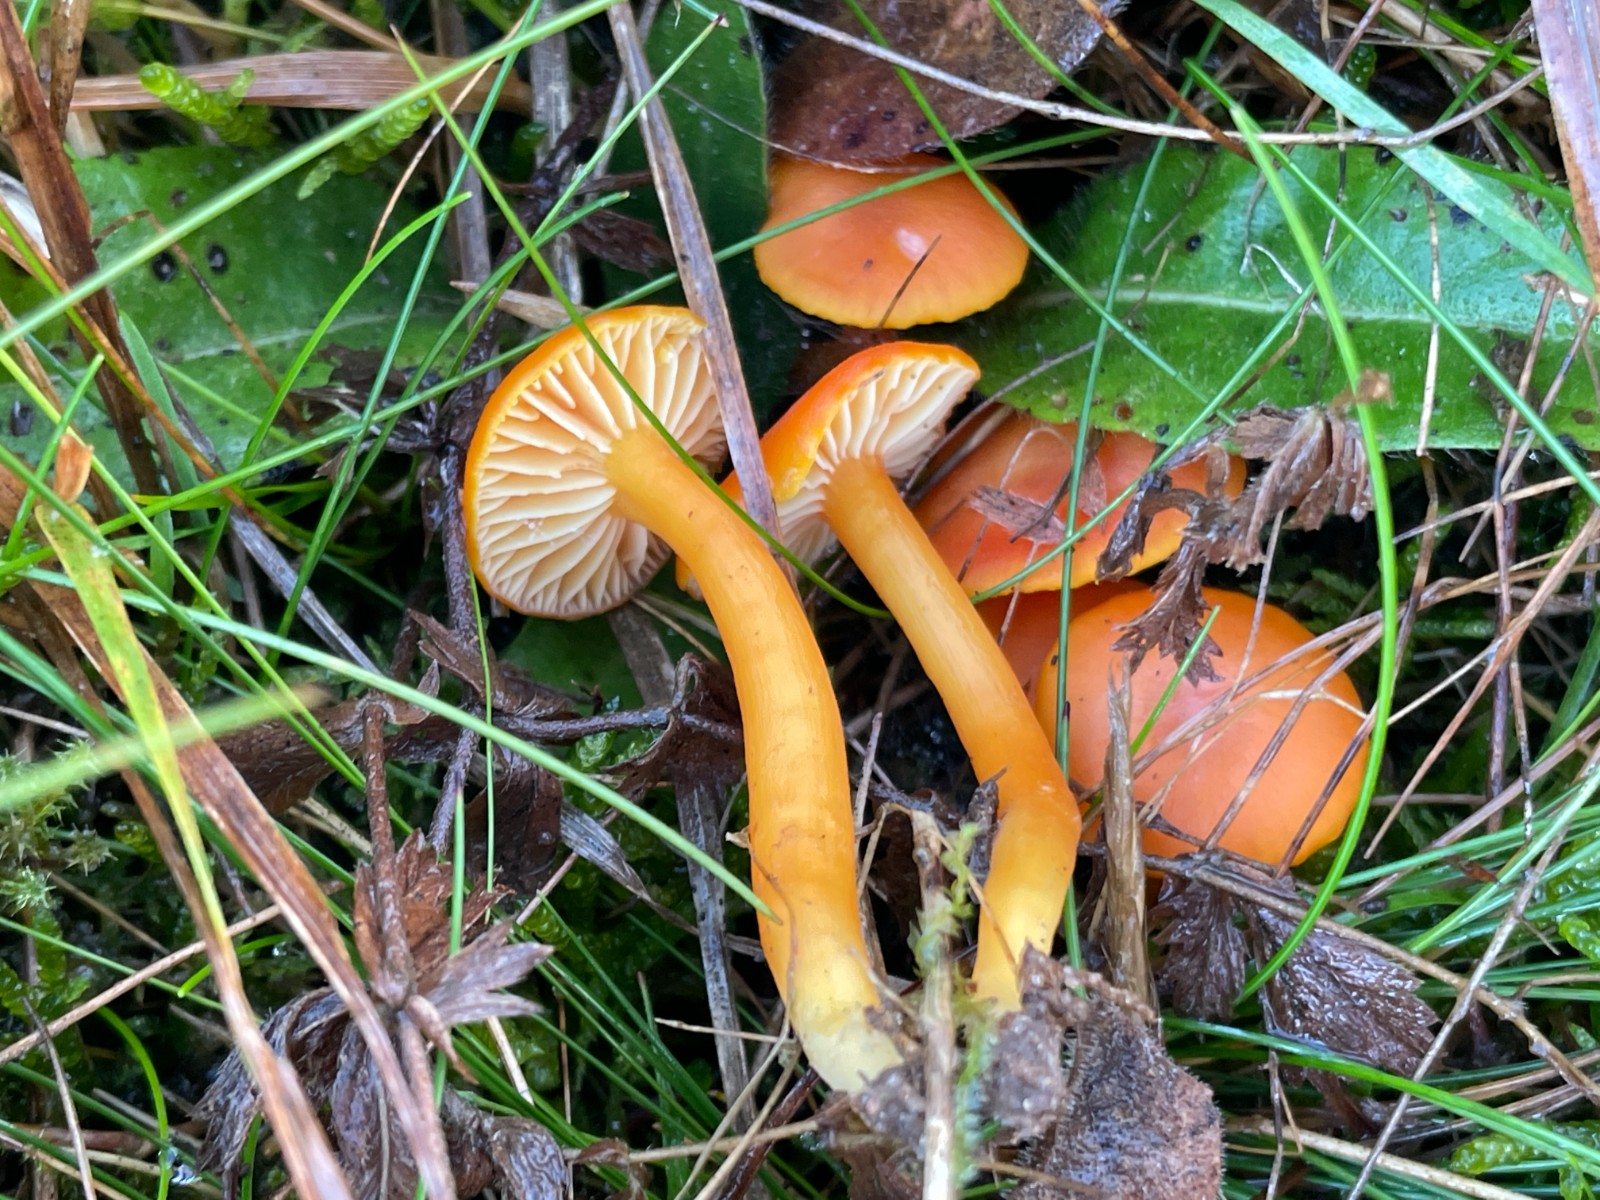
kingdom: Fungi
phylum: Basidiomycota
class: Agaricomycetes
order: Agaricales
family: Hygrophoraceae
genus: Hygrocybe
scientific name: Hygrocybe reidii
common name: honning-vokshat
